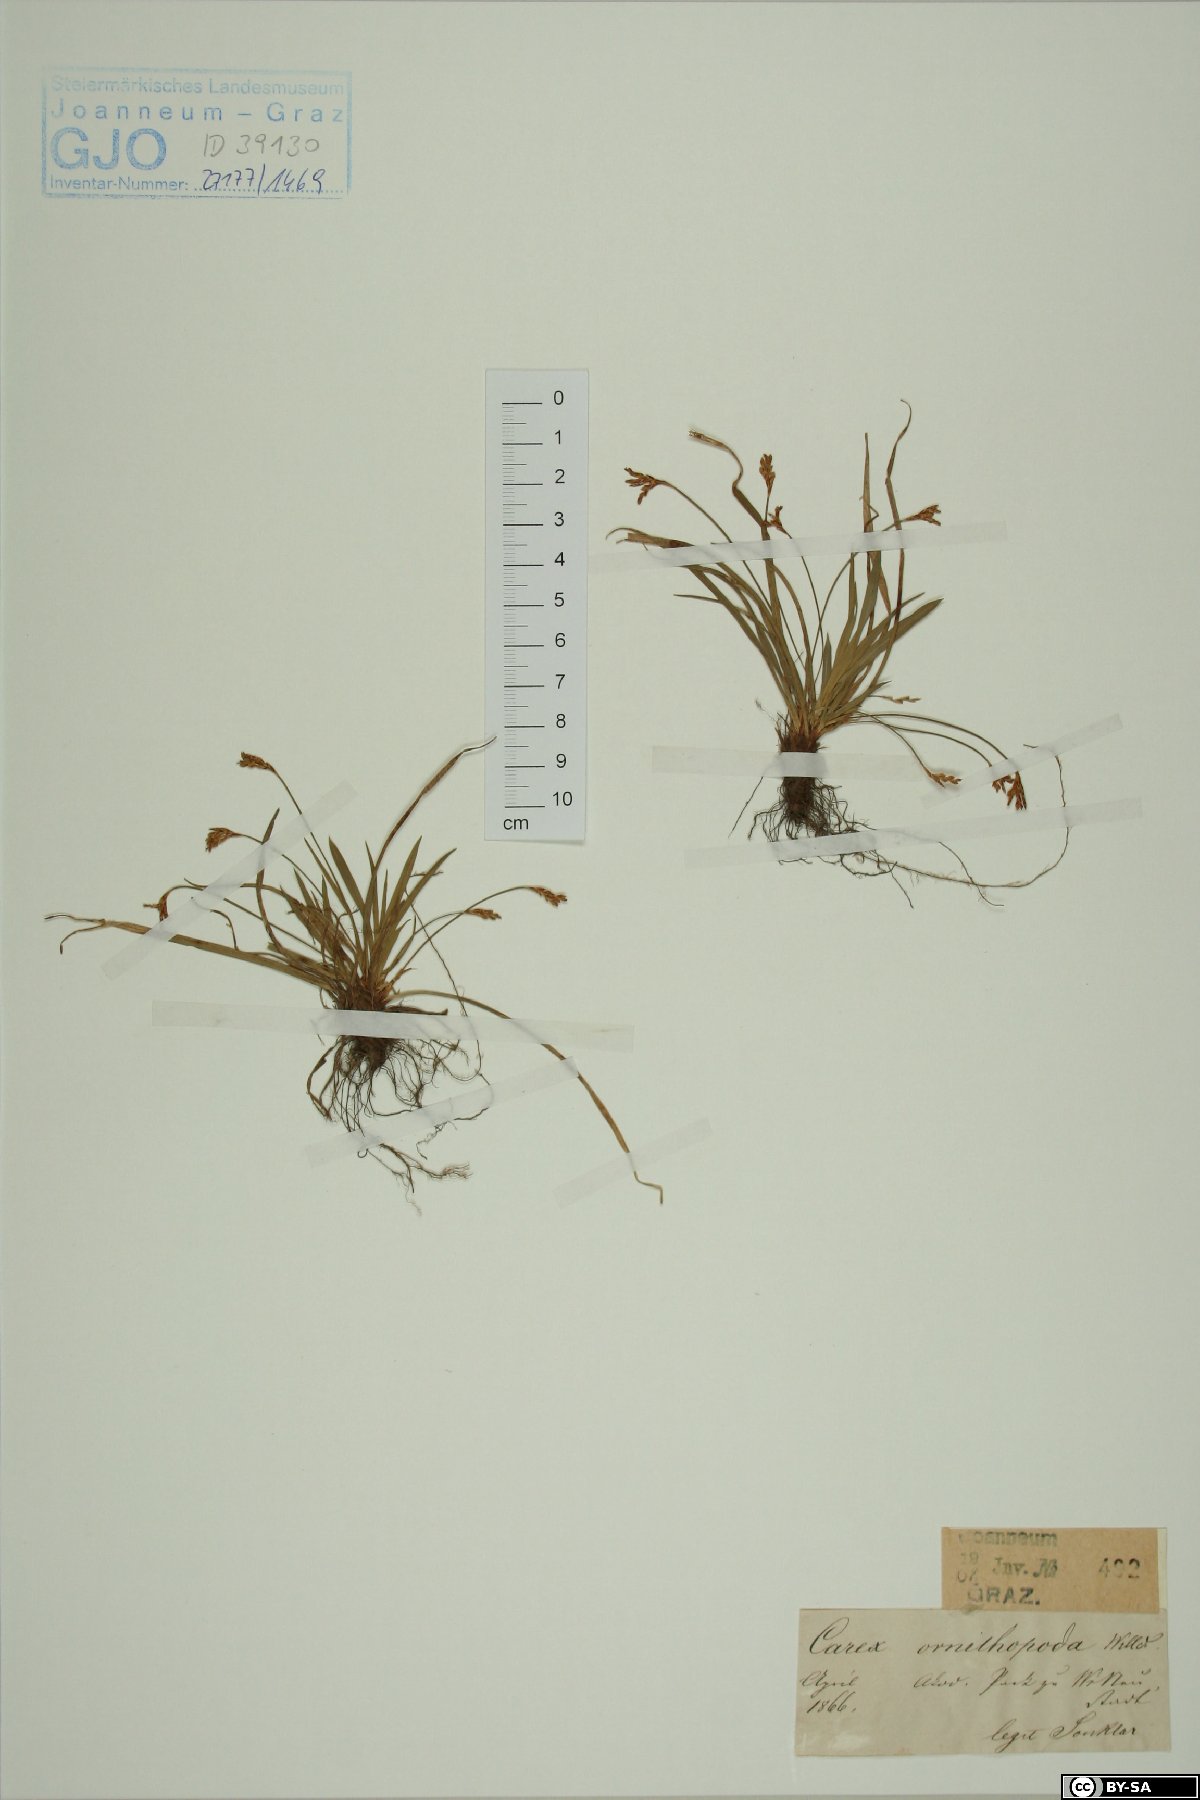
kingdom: Plantae
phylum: Tracheophyta
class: Liliopsida
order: Poales
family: Cyperaceae
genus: Carex
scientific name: Carex ornithopoda
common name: Bird's-foot sedge
